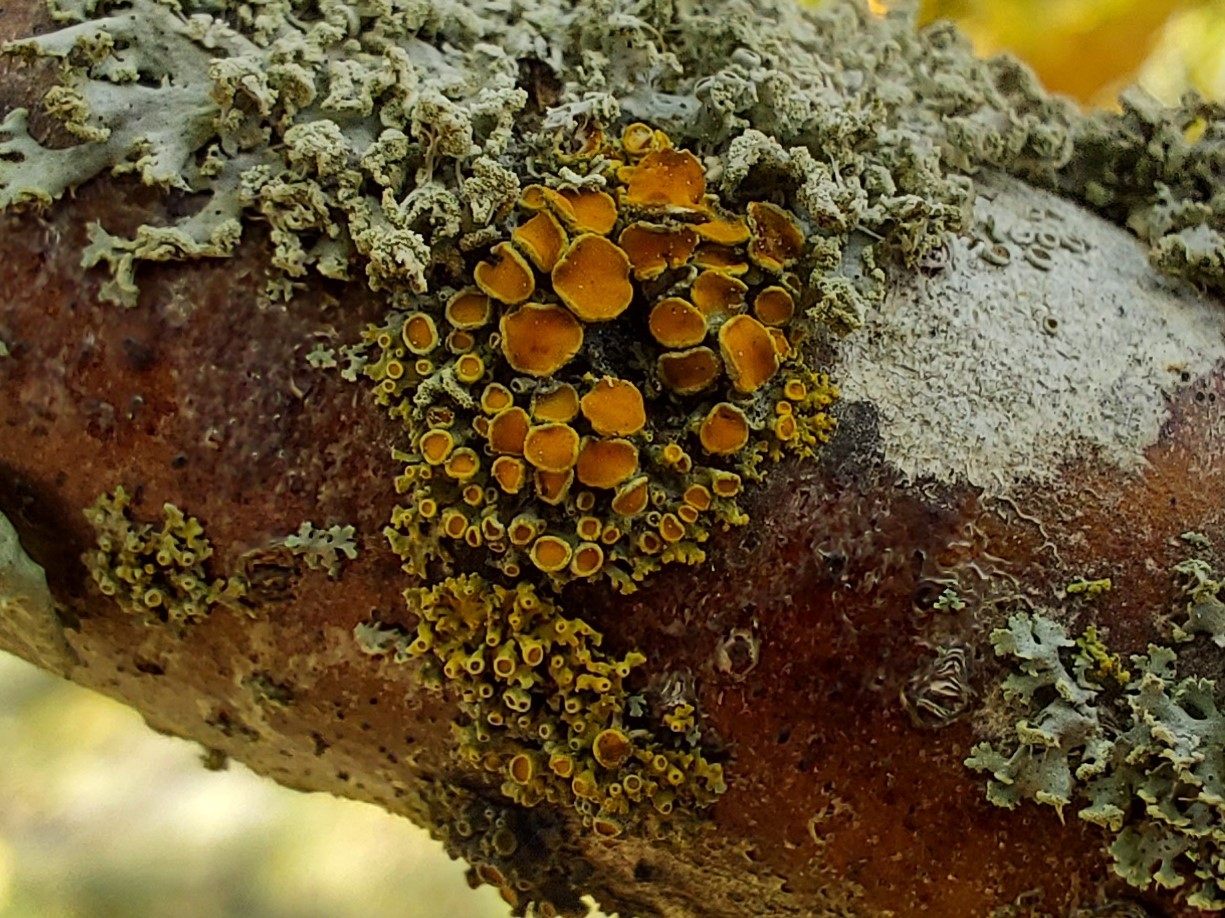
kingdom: Fungi
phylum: Ascomycota
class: Lecanoromycetes
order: Teloschistales
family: Teloschistaceae
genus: Polycauliona
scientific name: Polycauliona polycarpa
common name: mangefrugtet orangelav
